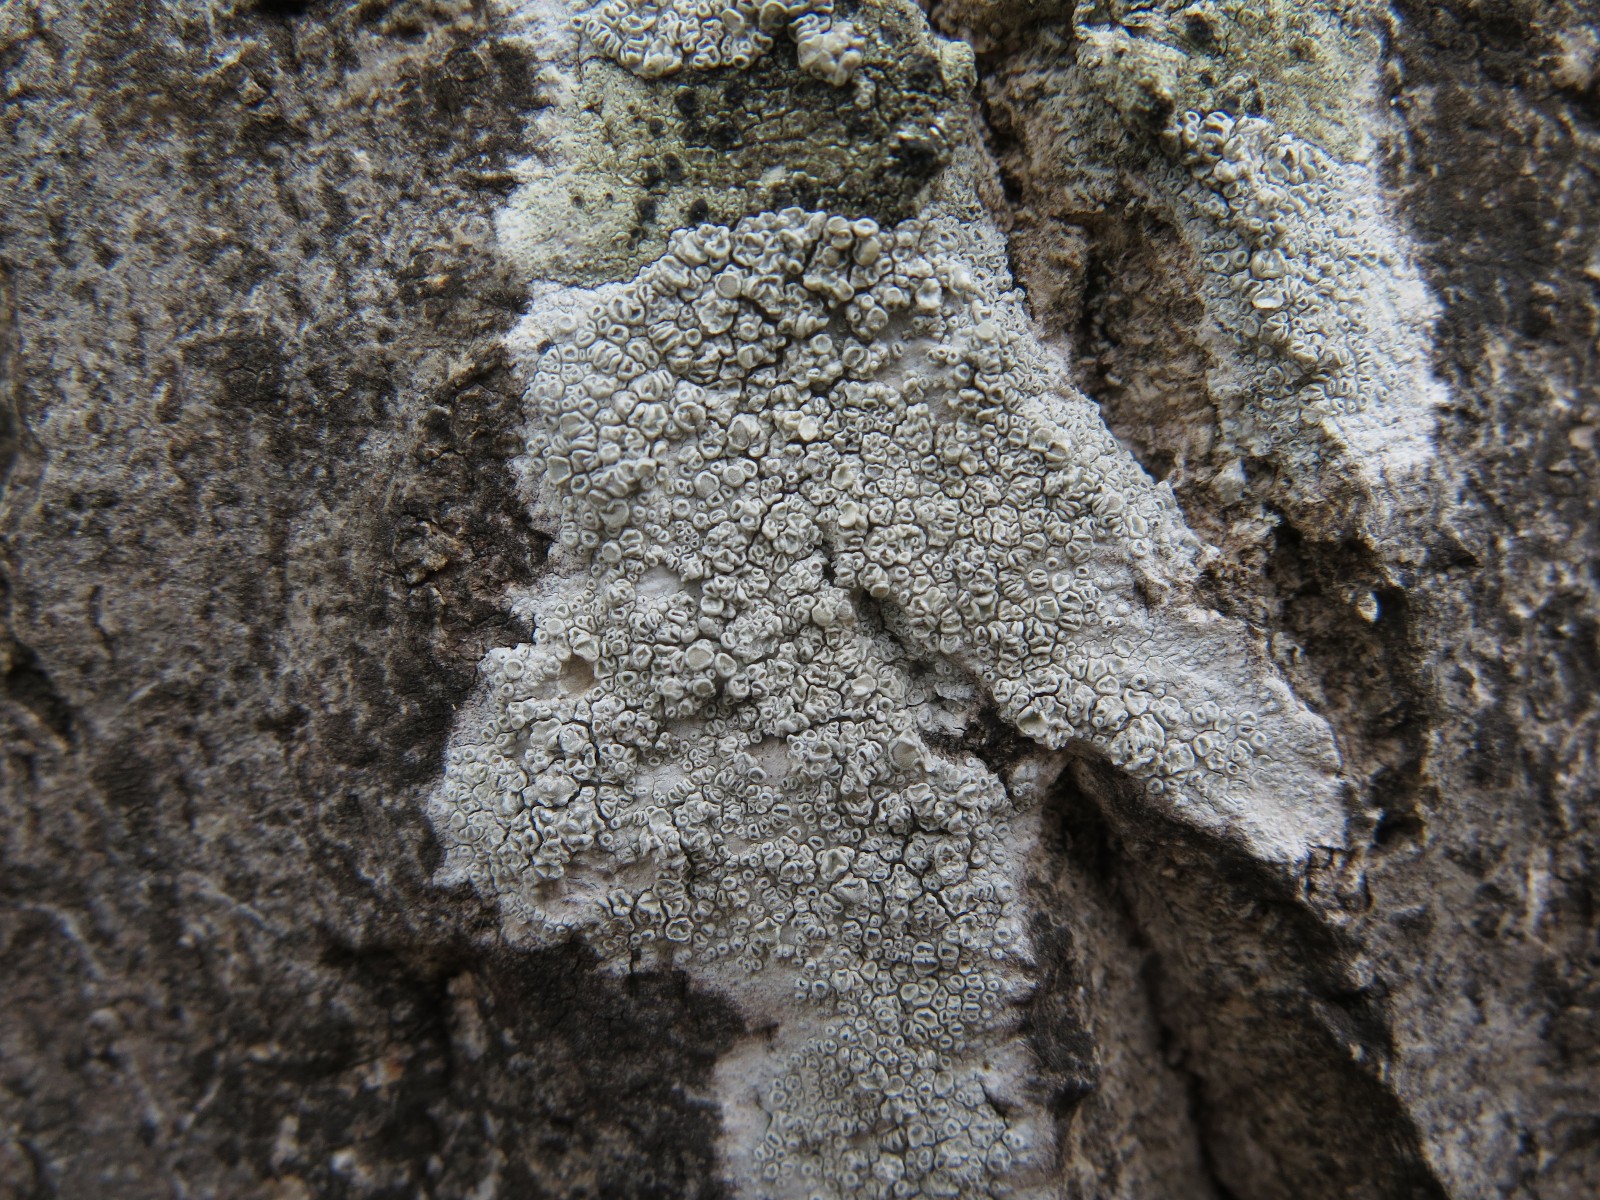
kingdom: Fungi
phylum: Ascomycota
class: Lecanoromycetes
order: Lecanorales
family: Lecanoraceae
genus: Glaucomaria
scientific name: Glaucomaria carpinea
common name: hviddugget kantskivelav
